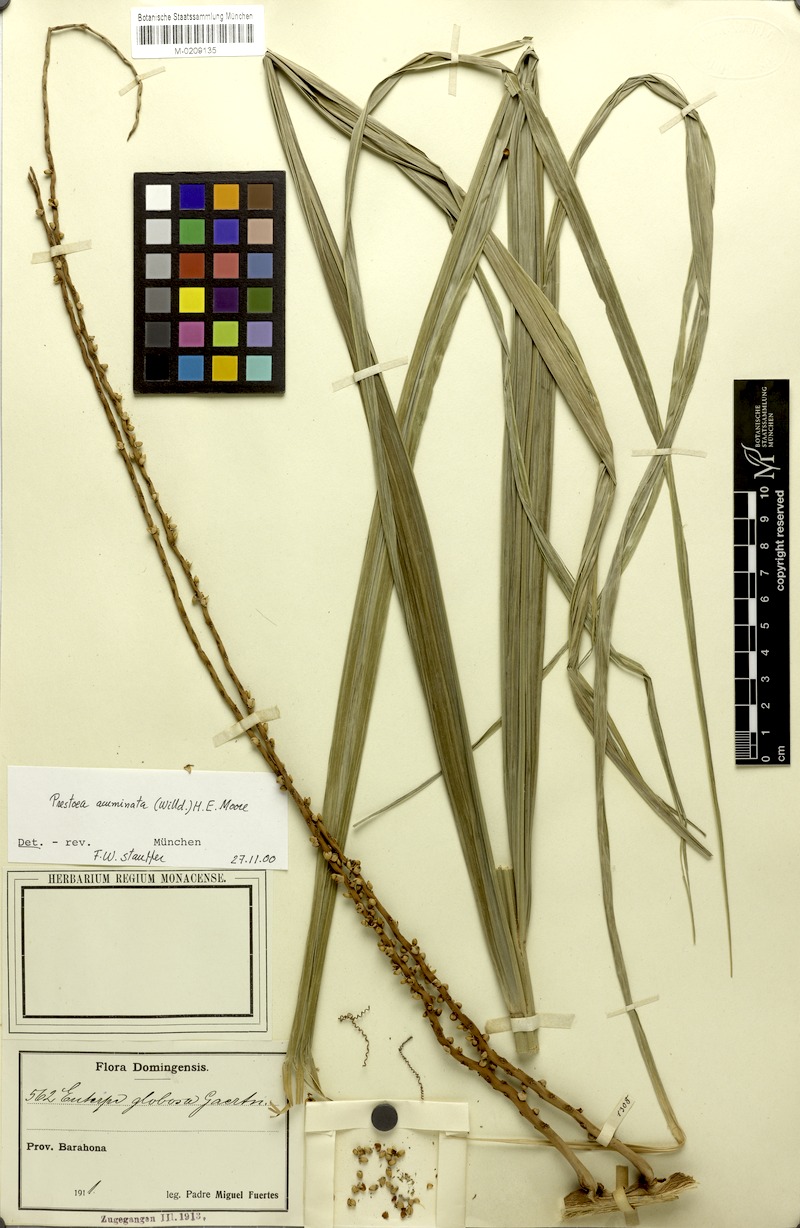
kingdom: Plantae
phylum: Tracheophyta
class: Liliopsida
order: Arecales
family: Arecaceae
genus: Prestoea
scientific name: Prestoea acuminata
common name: Sierran palm
